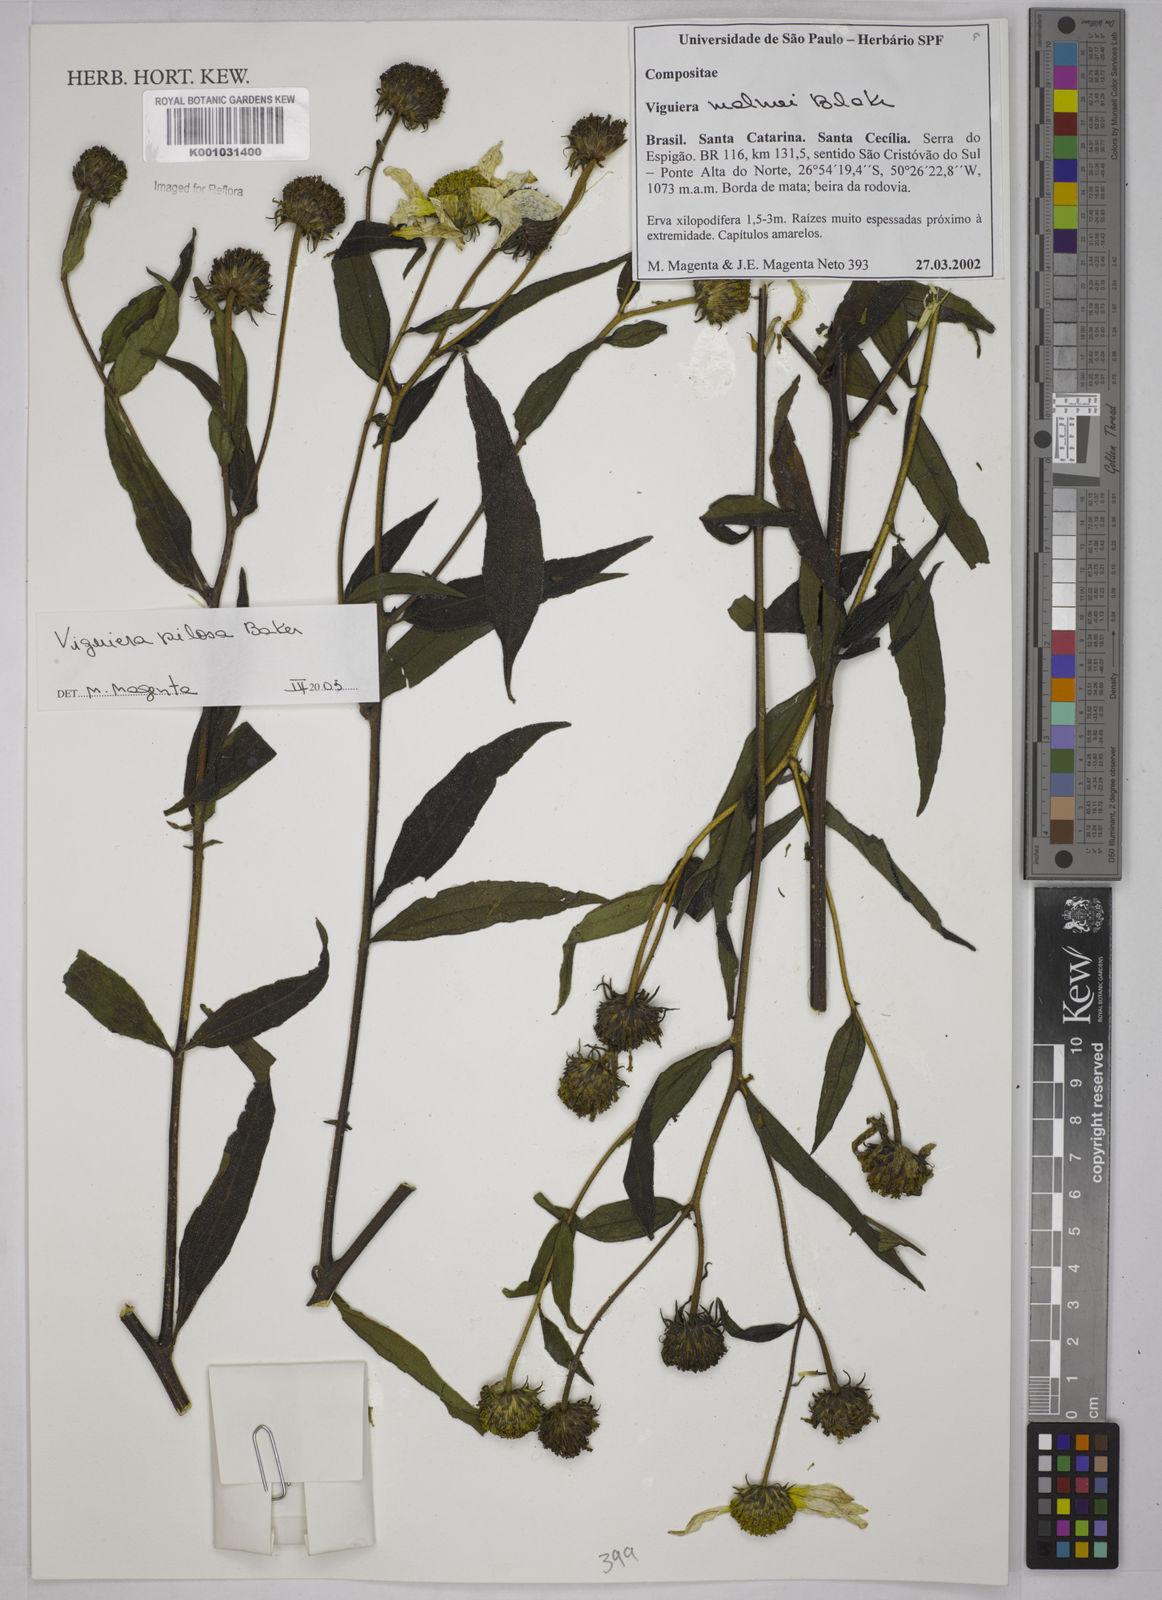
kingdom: Plantae
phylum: Tracheophyta
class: Magnoliopsida
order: Asterales
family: Asteraceae
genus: Aldama
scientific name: Aldama pilosa
